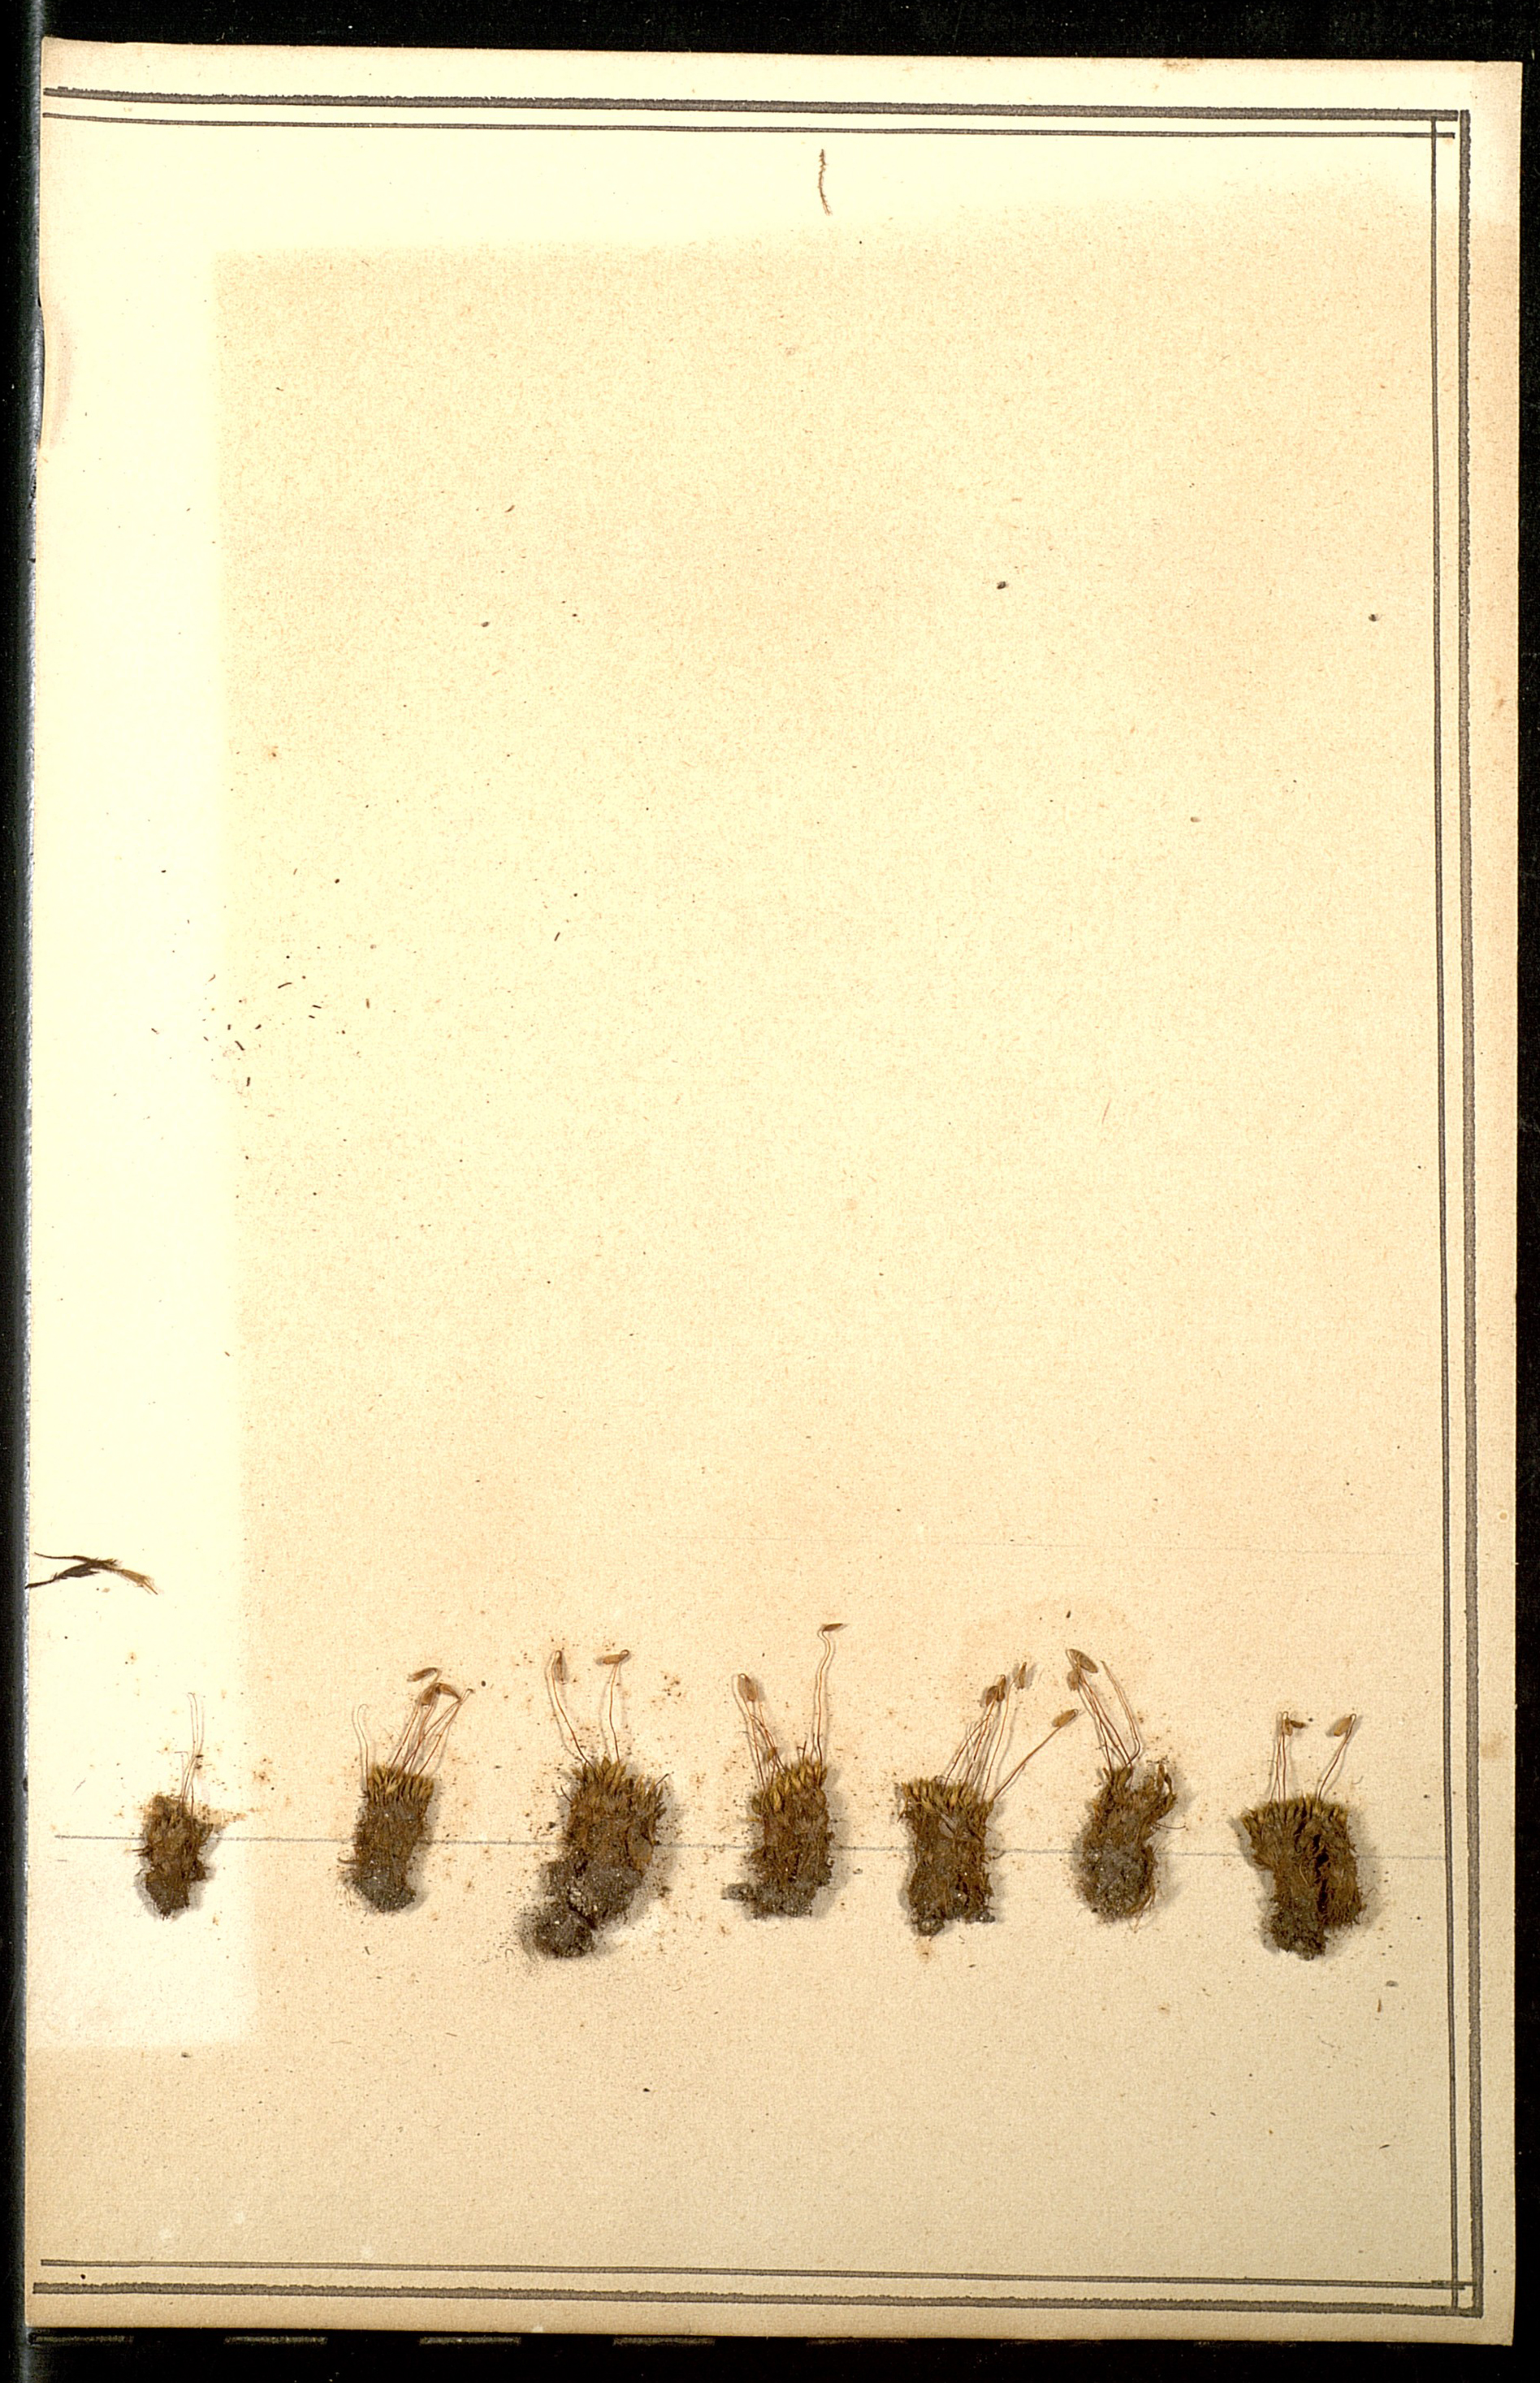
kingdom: Plantae
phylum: Bryophyta
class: Bryopsida
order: Bryales
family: Bryaceae
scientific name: Bryaceae
